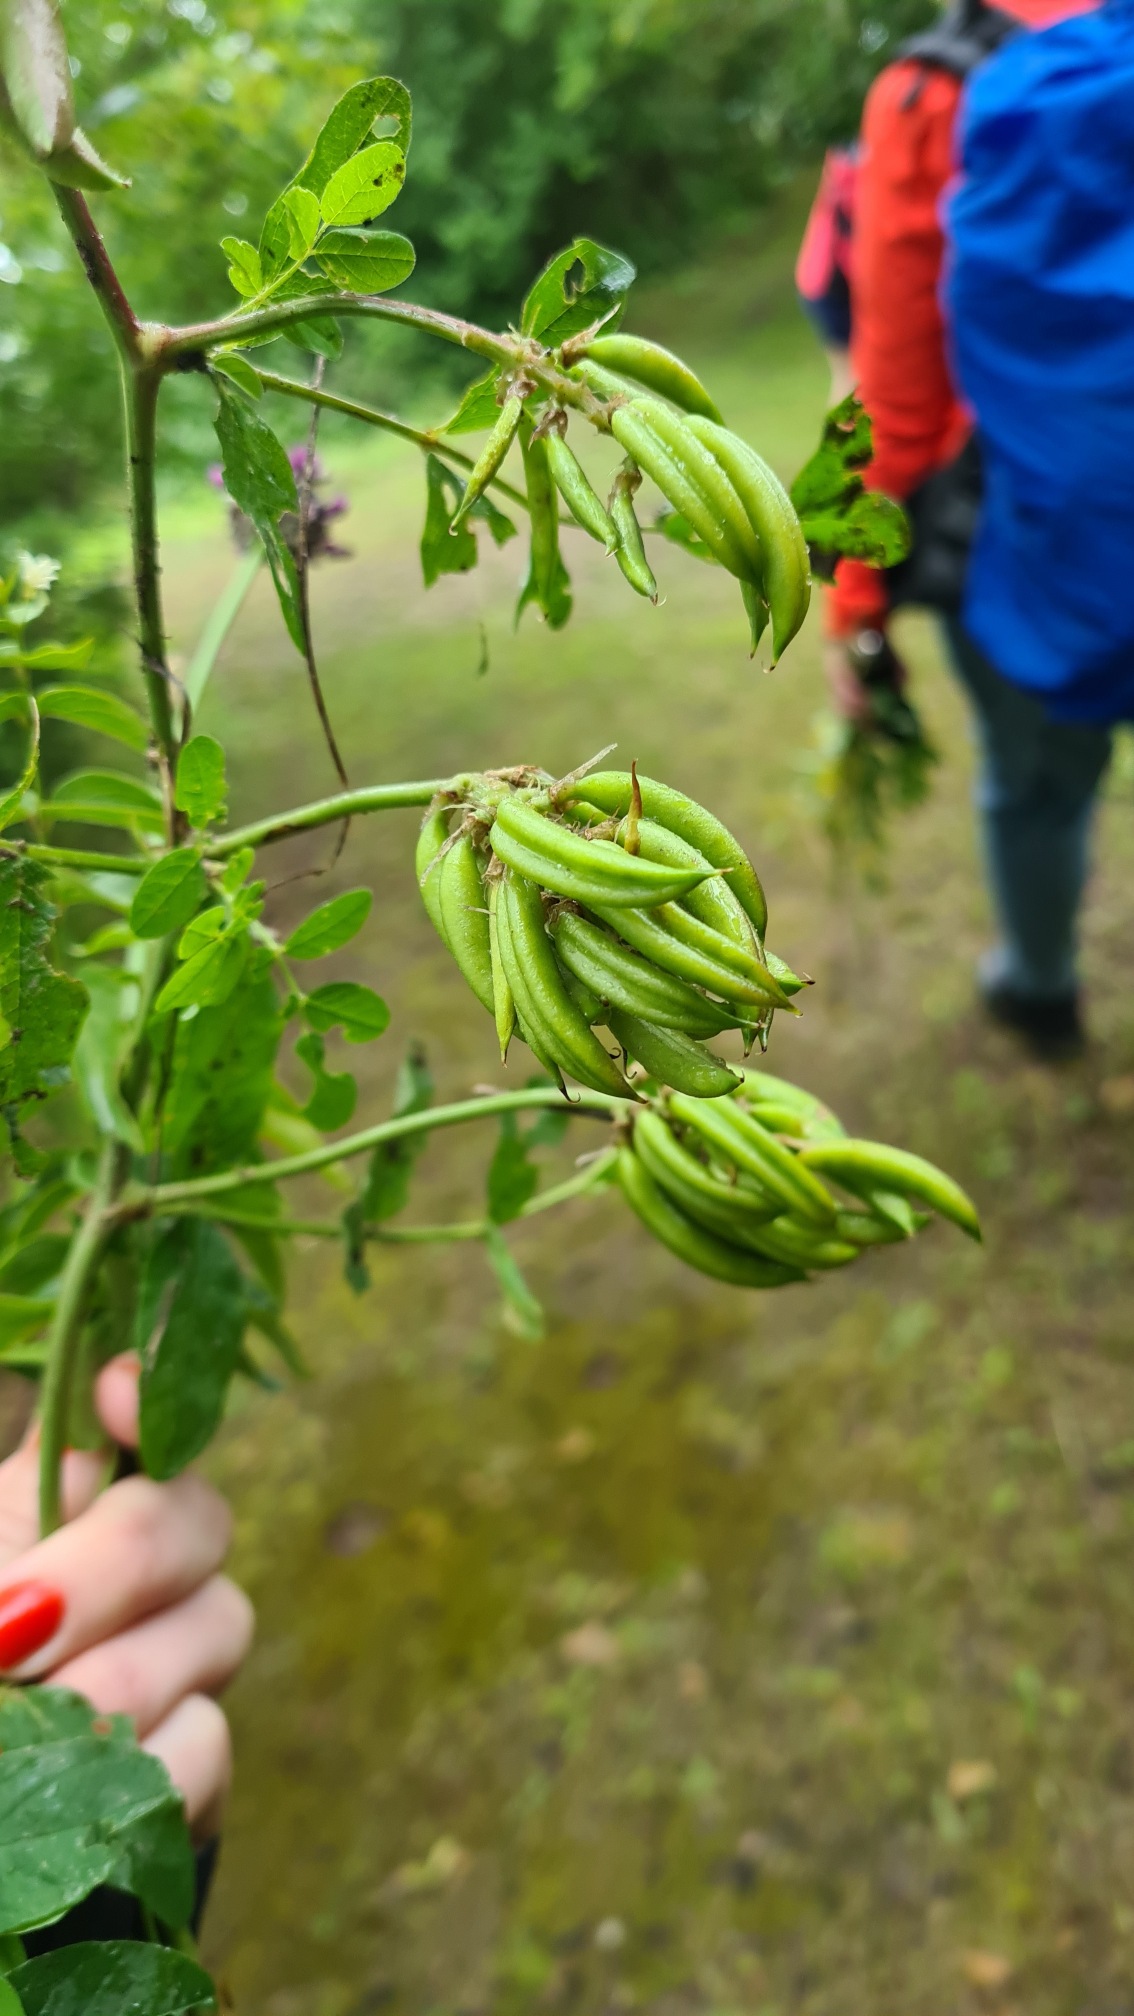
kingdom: Plantae
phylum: Tracheophyta
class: Magnoliopsida
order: Fabales
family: Fabaceae
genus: Astragalus
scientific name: Astragalus glycyphyllos
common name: Sød astragel
